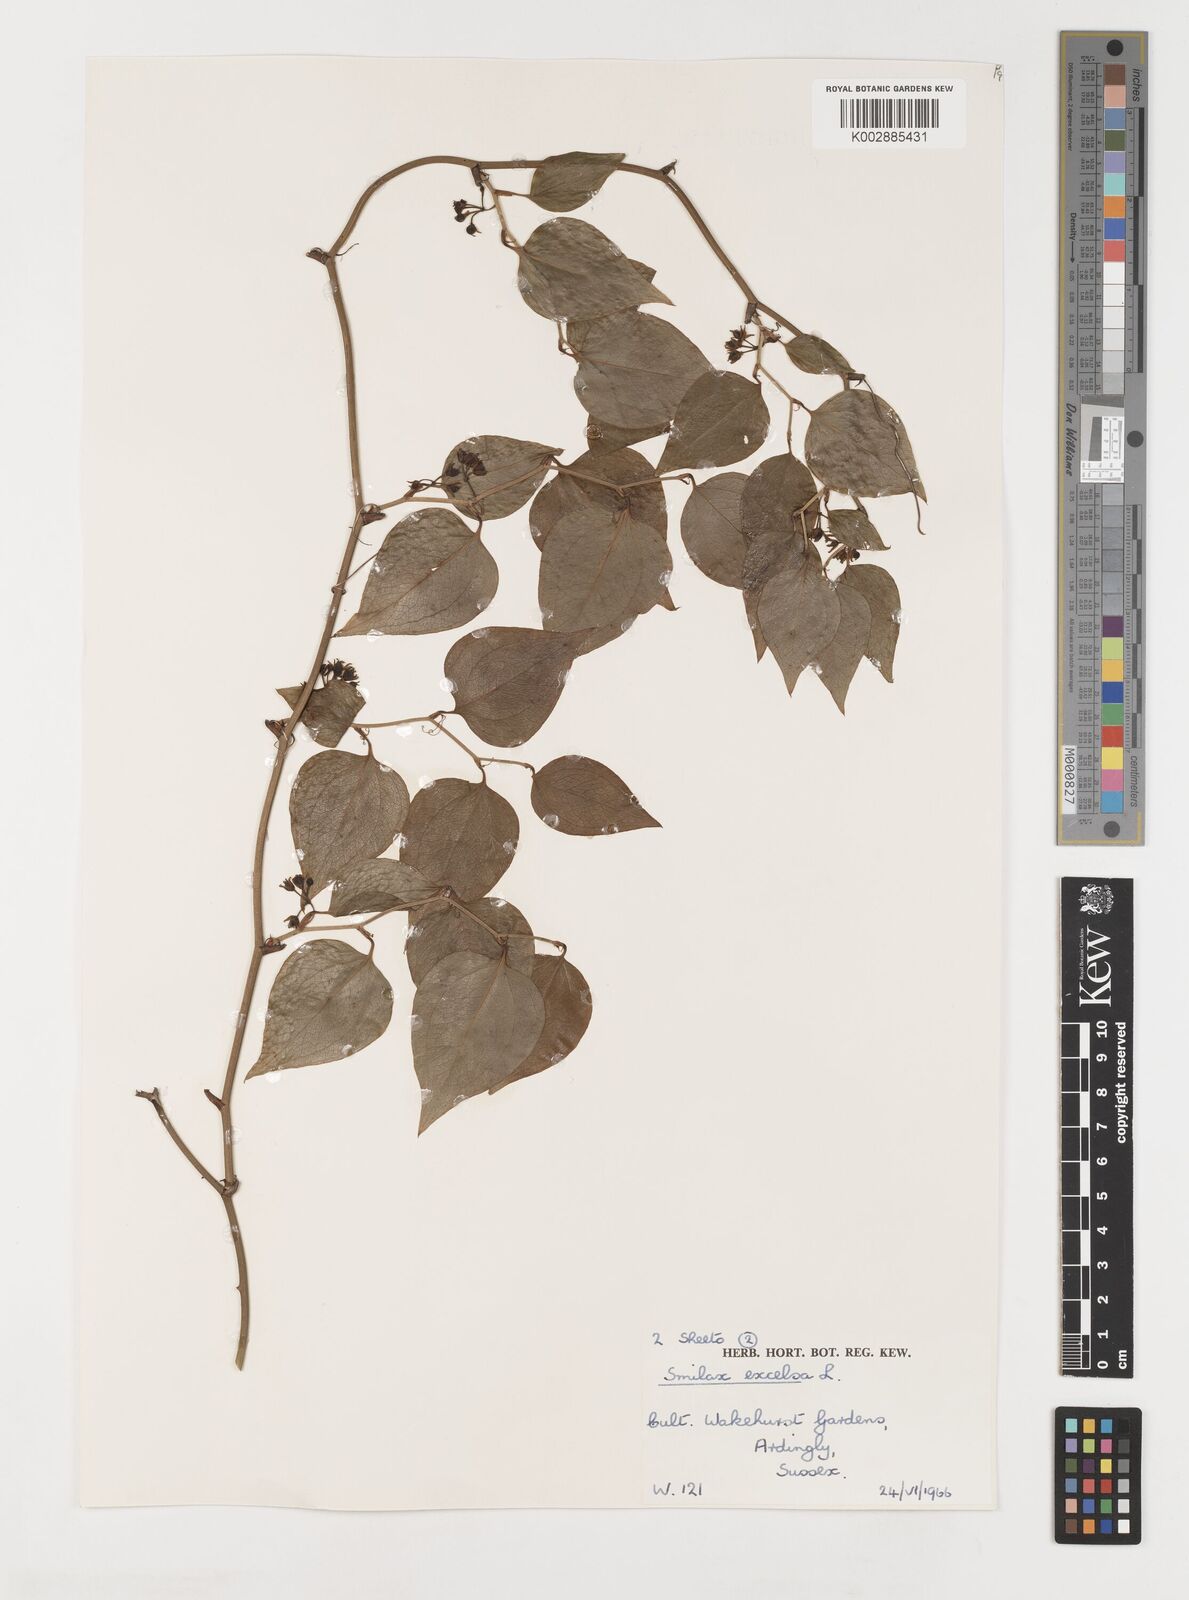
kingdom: Plantae
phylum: Tracheophyta
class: Liliopsida
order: Liliales
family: Smilacaceae
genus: Smilax
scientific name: Smilax excelsa
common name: Larger smilax
